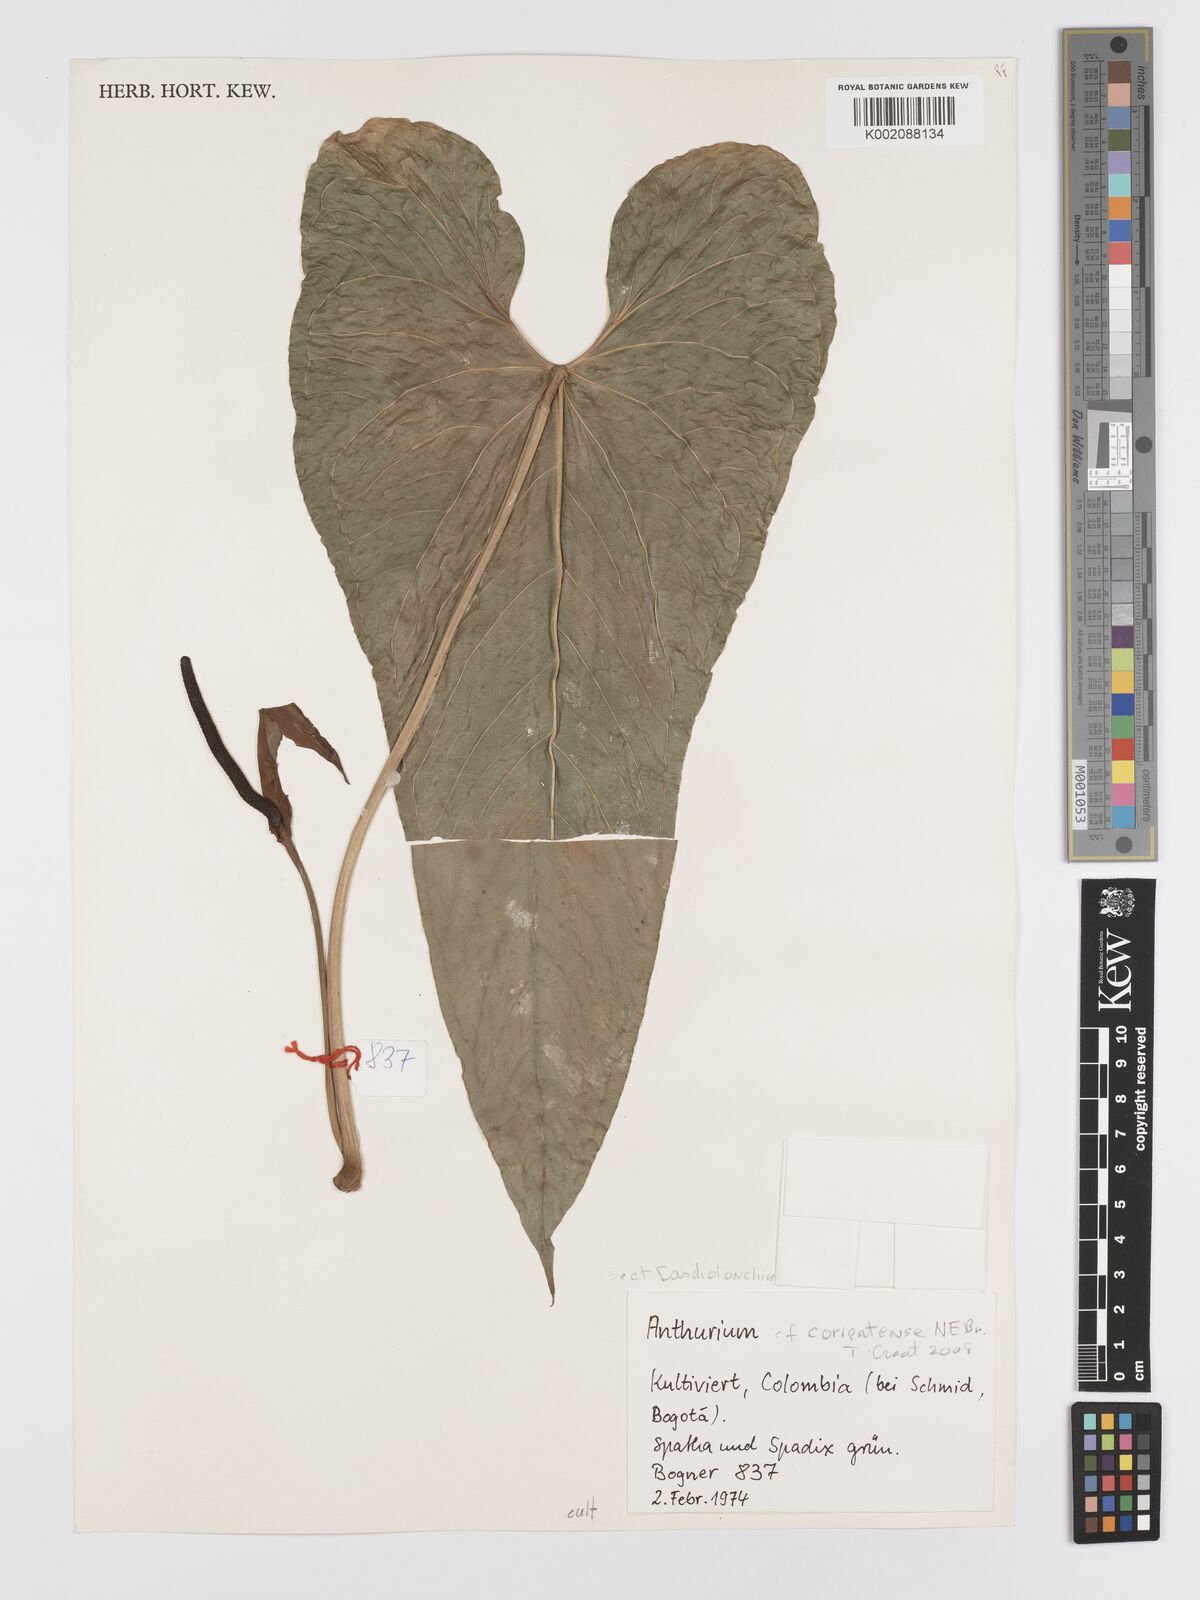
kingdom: Plantae
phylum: Tracheophyta
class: Liliopsida
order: Alismatales
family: Araceae
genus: Anthurium
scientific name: Anthurium
